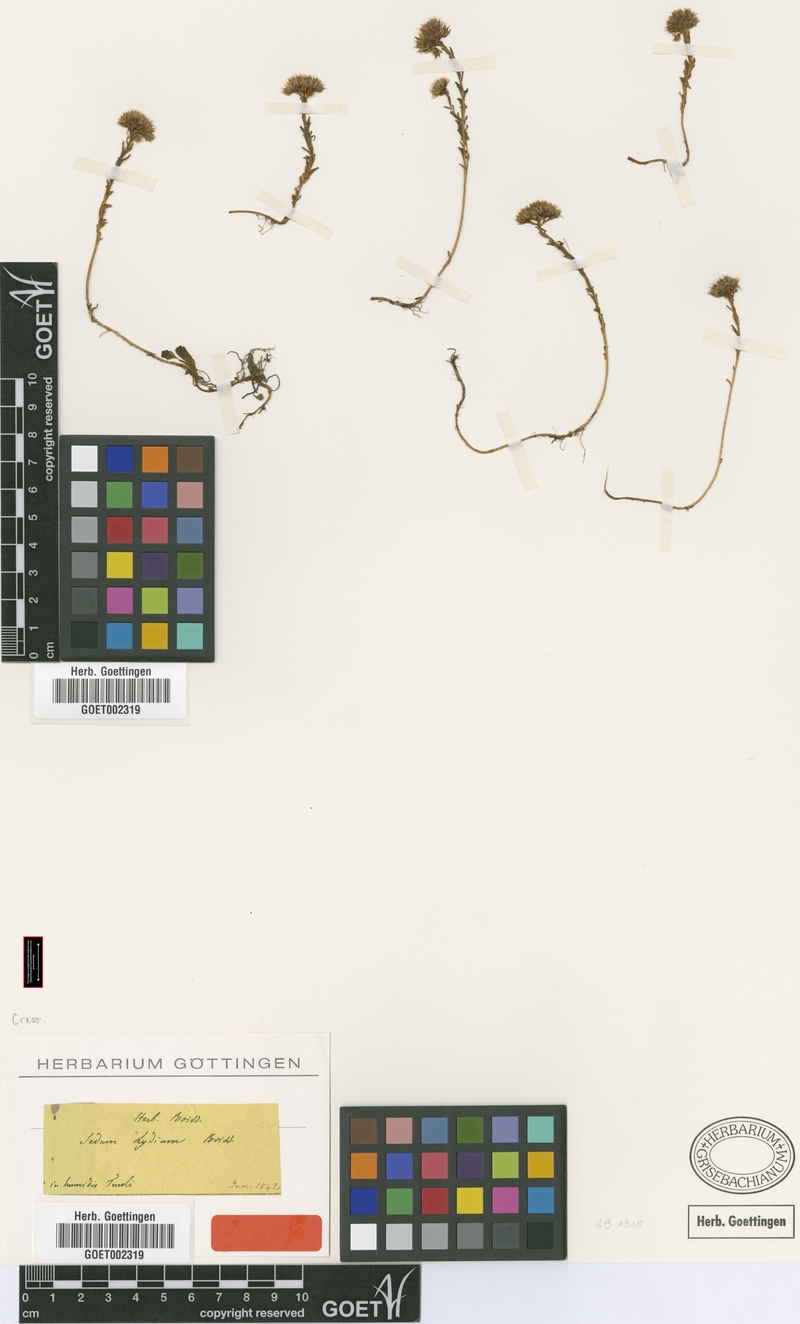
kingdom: Plantae
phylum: Tracheophyta
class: Magnoliopsida
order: Saxifragales
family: Crassulaceae
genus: Sedum
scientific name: Sedum lydium
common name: Least stonecrop
